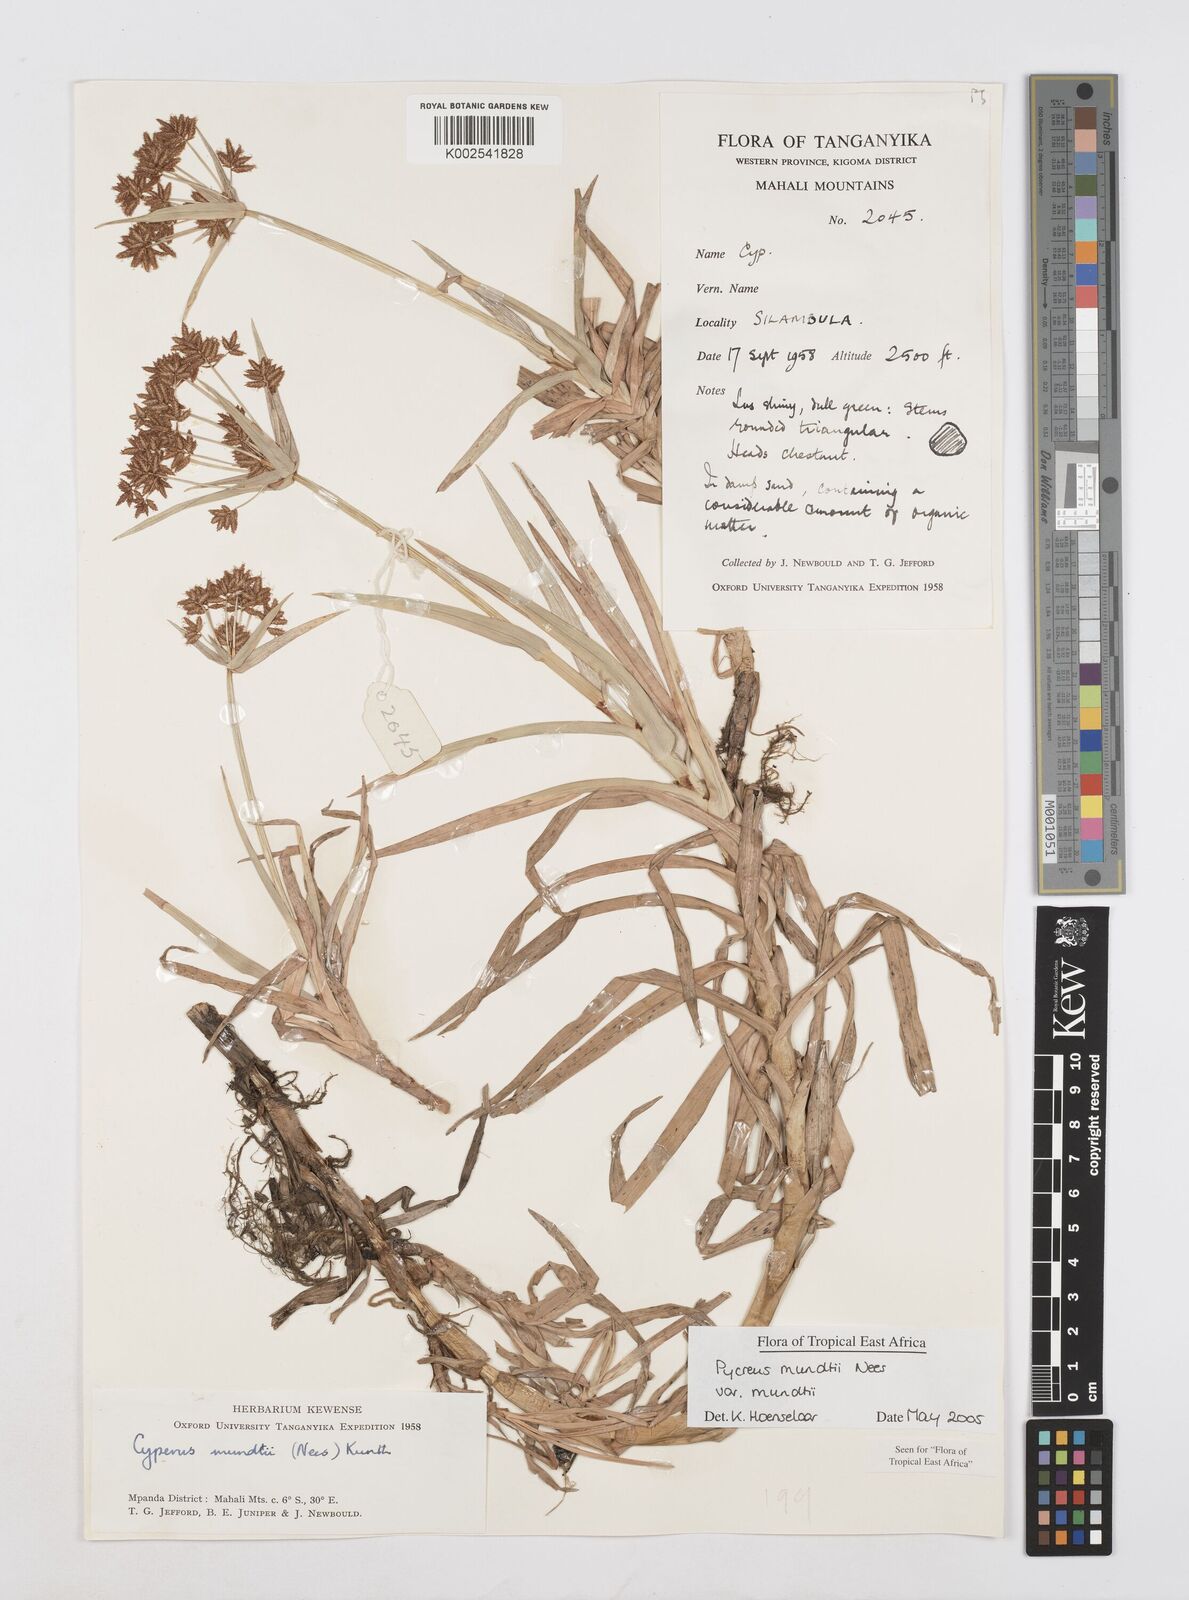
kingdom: Plantae
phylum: Tracheophyta
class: Liliopsida
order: Poales
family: Cyperaceae
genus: Cyperus
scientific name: Cyperus mundii
